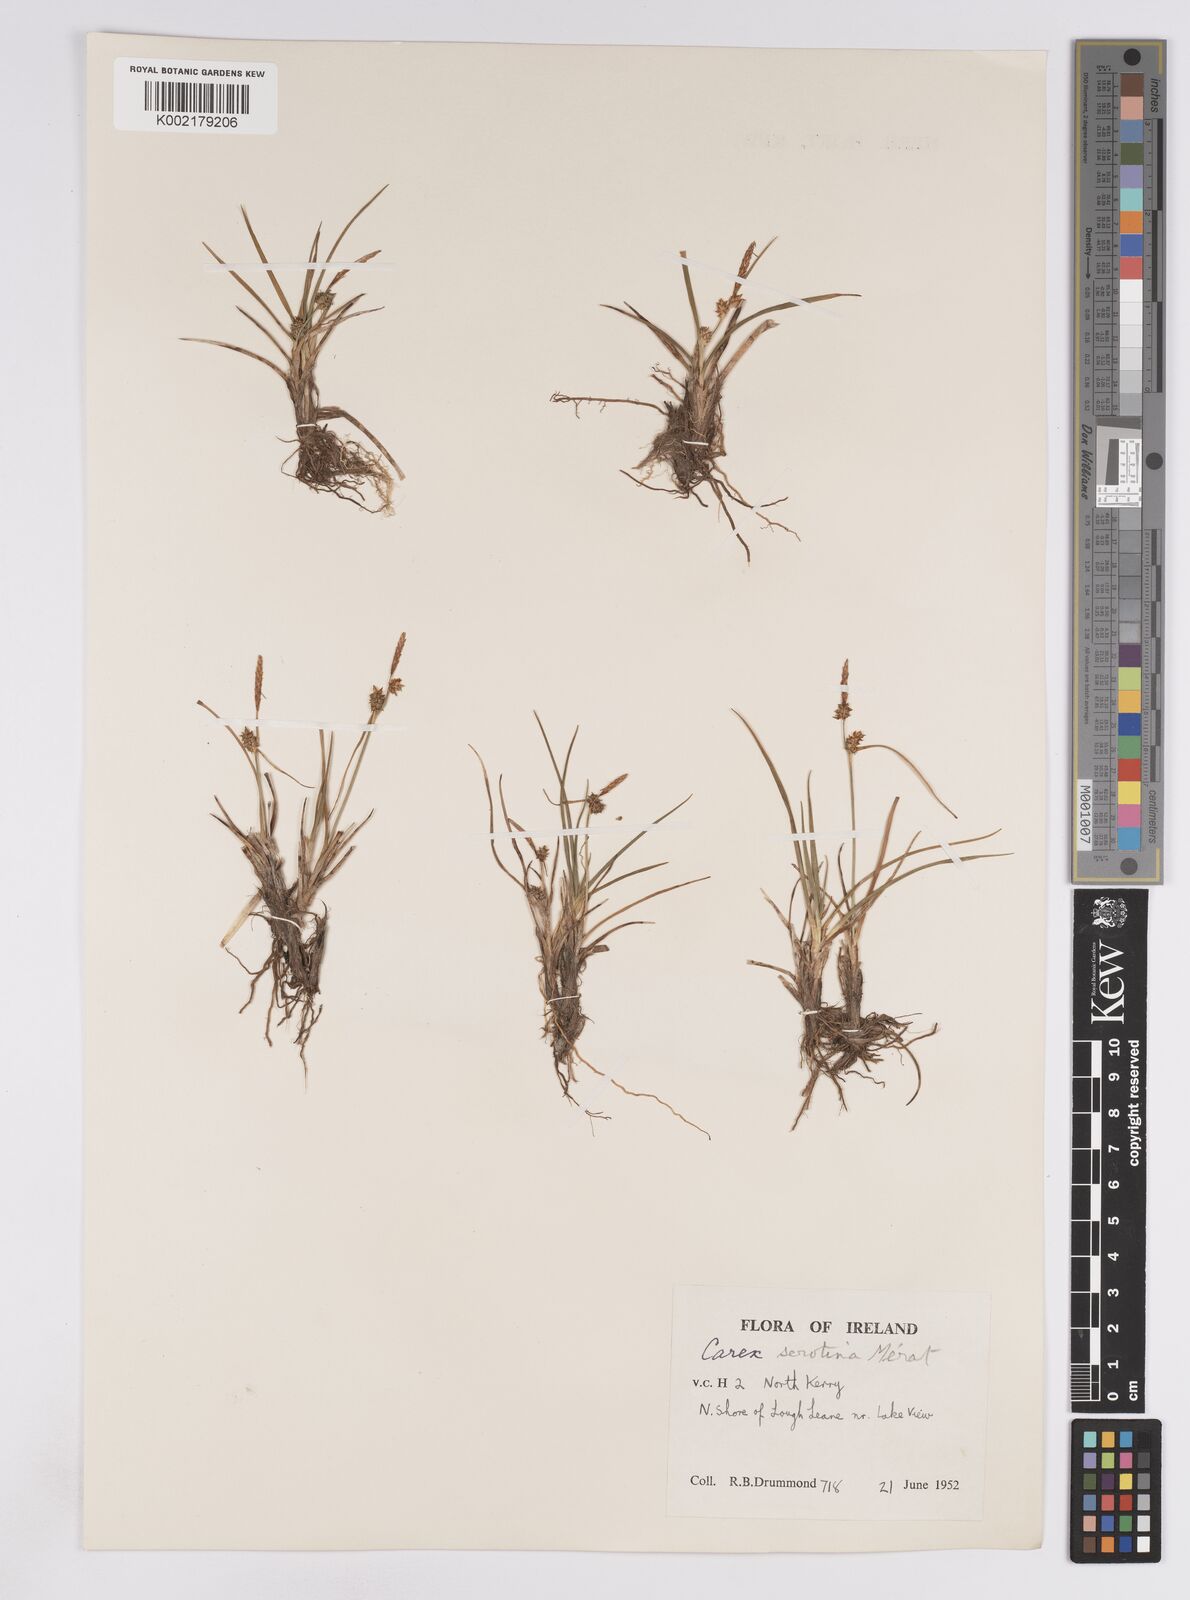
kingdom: Plantae
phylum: Tracheophyta
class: Liliopsida
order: Poales
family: Cyperaceae
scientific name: Cyperaceae
